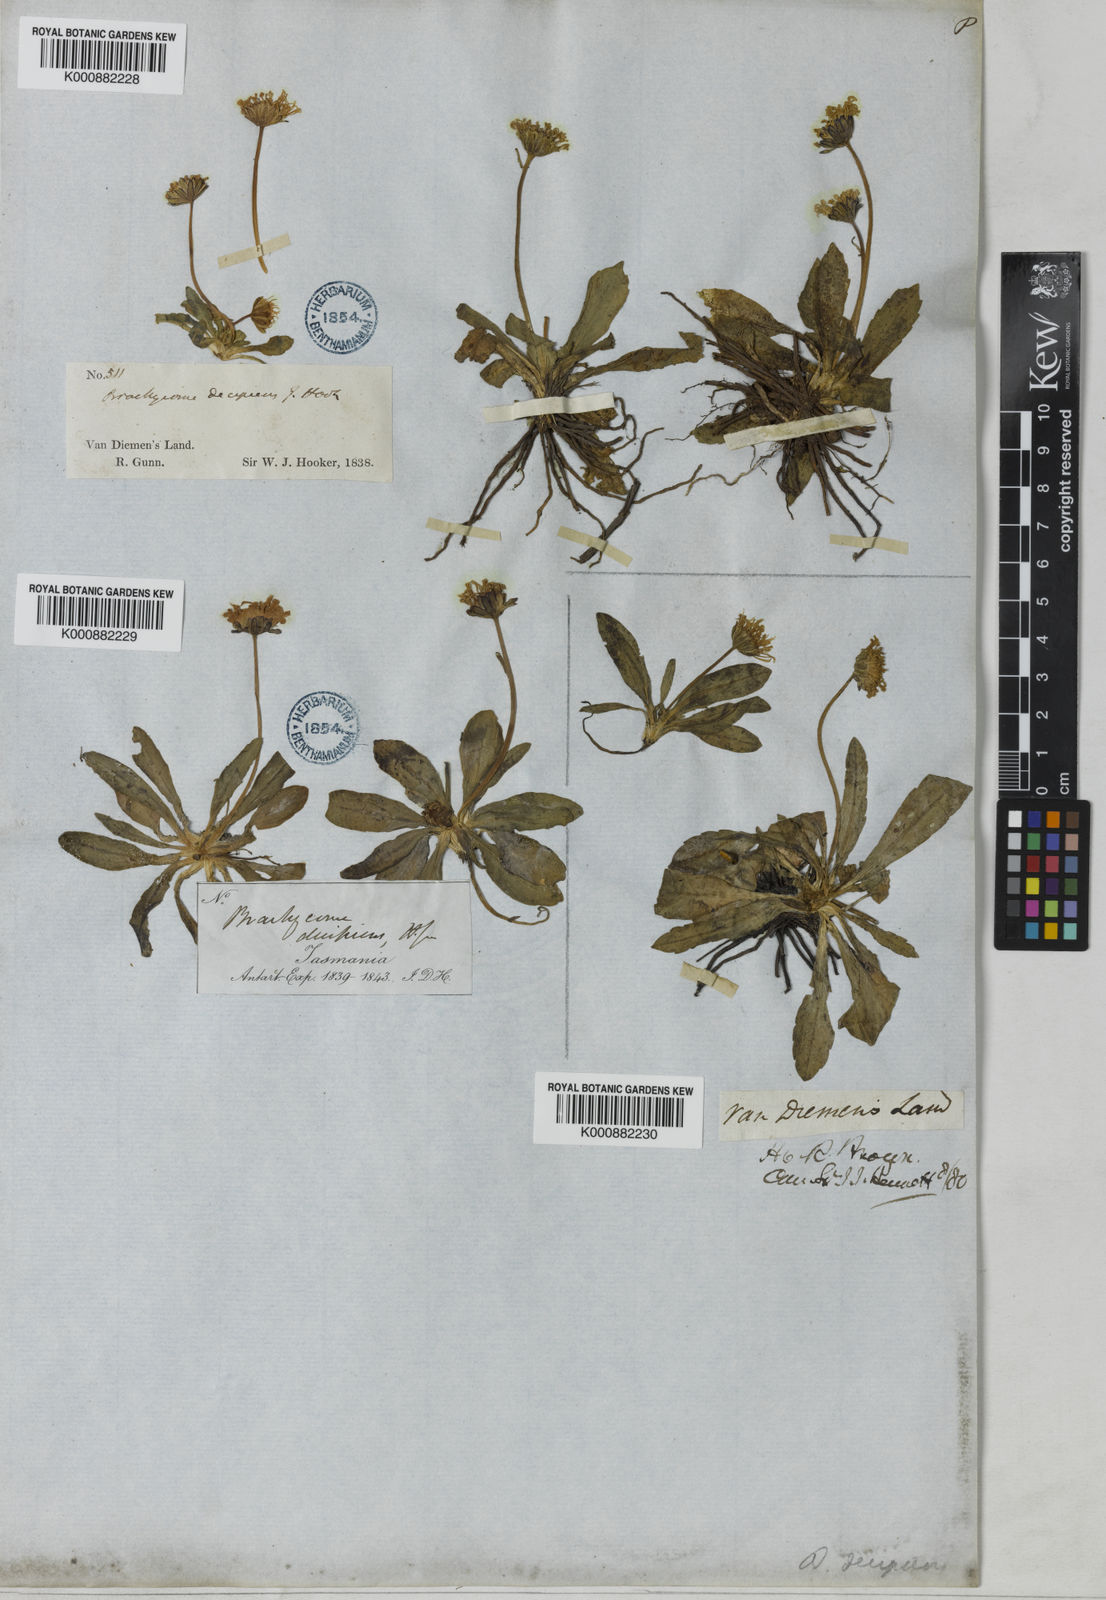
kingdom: Plantae
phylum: Tracheophyta
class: Magnoliopsida
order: Asterales
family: Asteraceae
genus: Brachyscome
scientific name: Brachyscome decipiens
